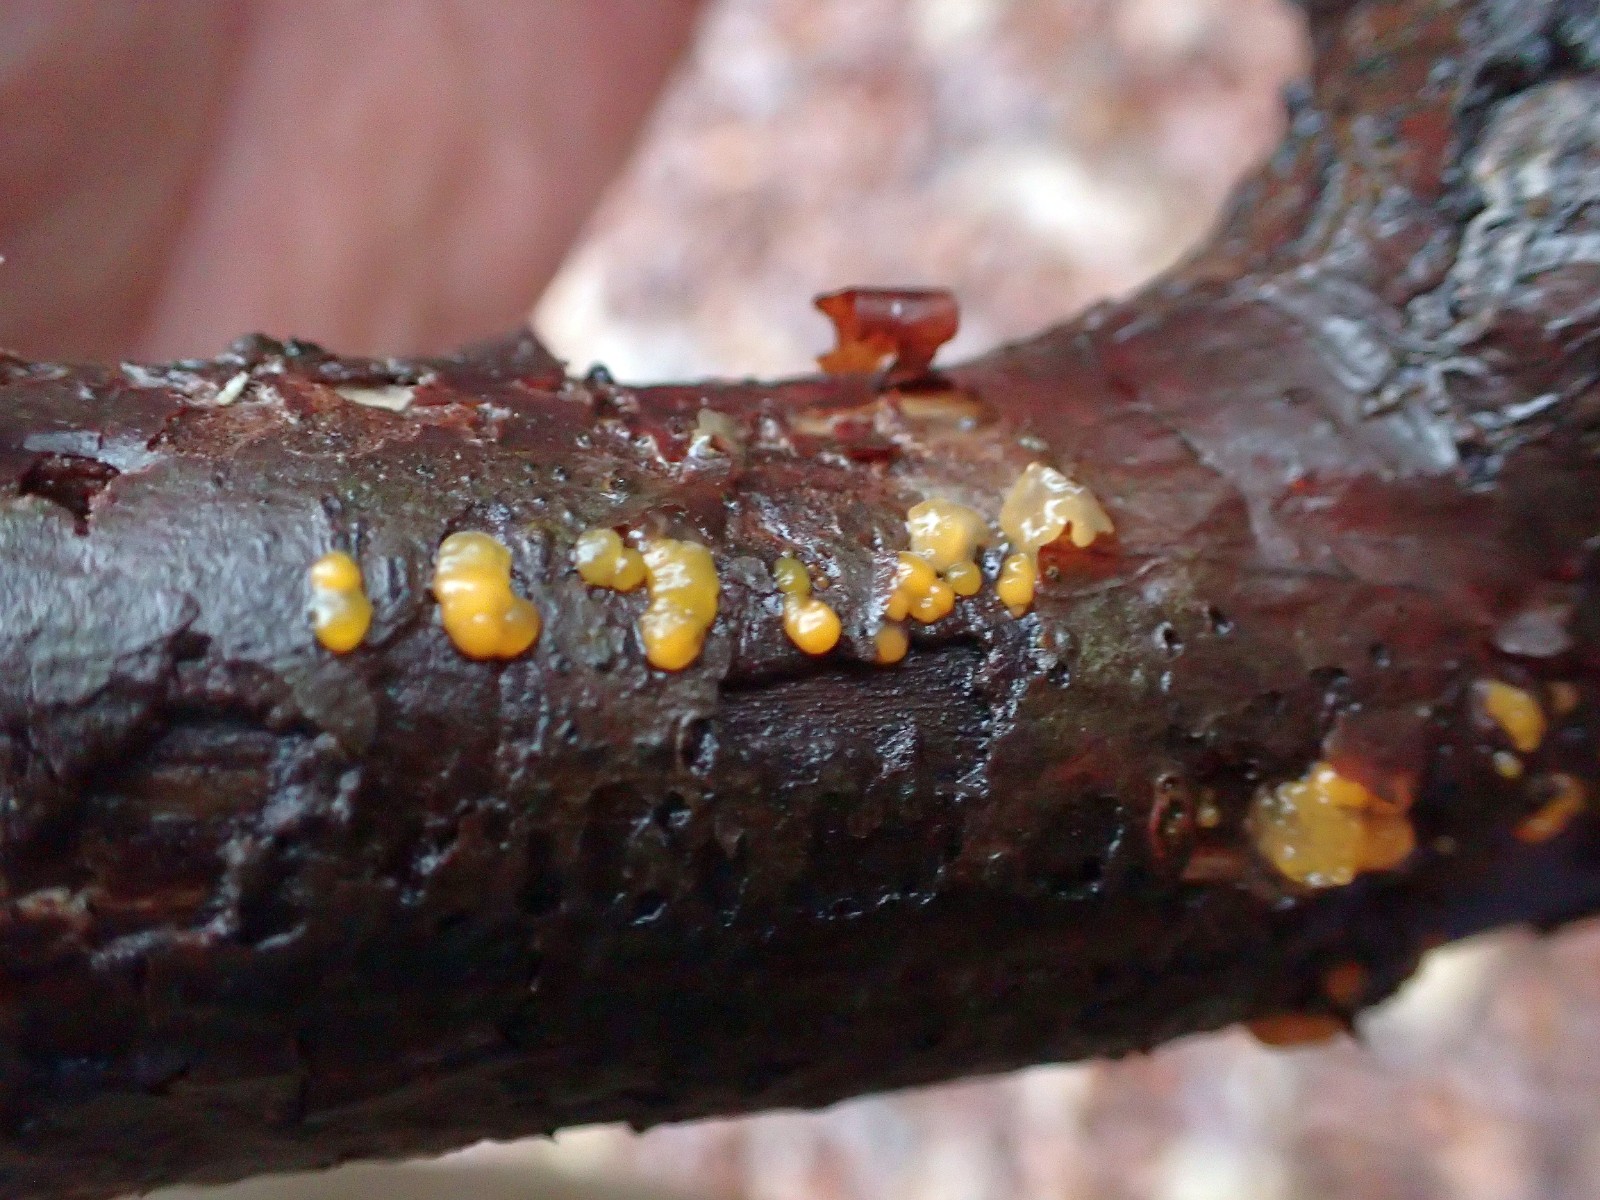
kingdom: Fungi
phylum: Basidiomycota
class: Dacrymycetes
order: Dacrymycetales
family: Dacrymycetaceae
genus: Dacrymyces
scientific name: Dacrymyces stillatus
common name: almindelig tåresvamp
